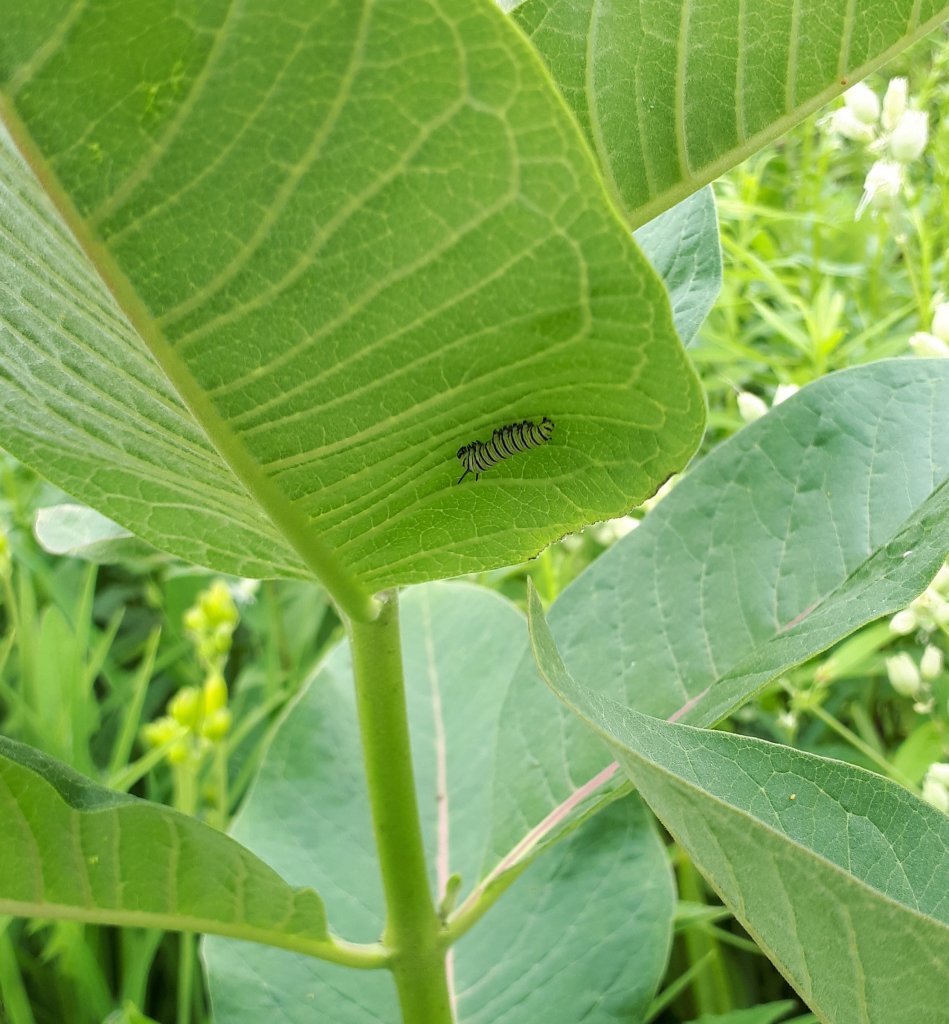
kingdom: Animalia
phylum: Arthropoda
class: Insecta
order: Lepidoptera
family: Nymphalidae
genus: Danaus
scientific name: Danaus plexippus
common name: Monarch
